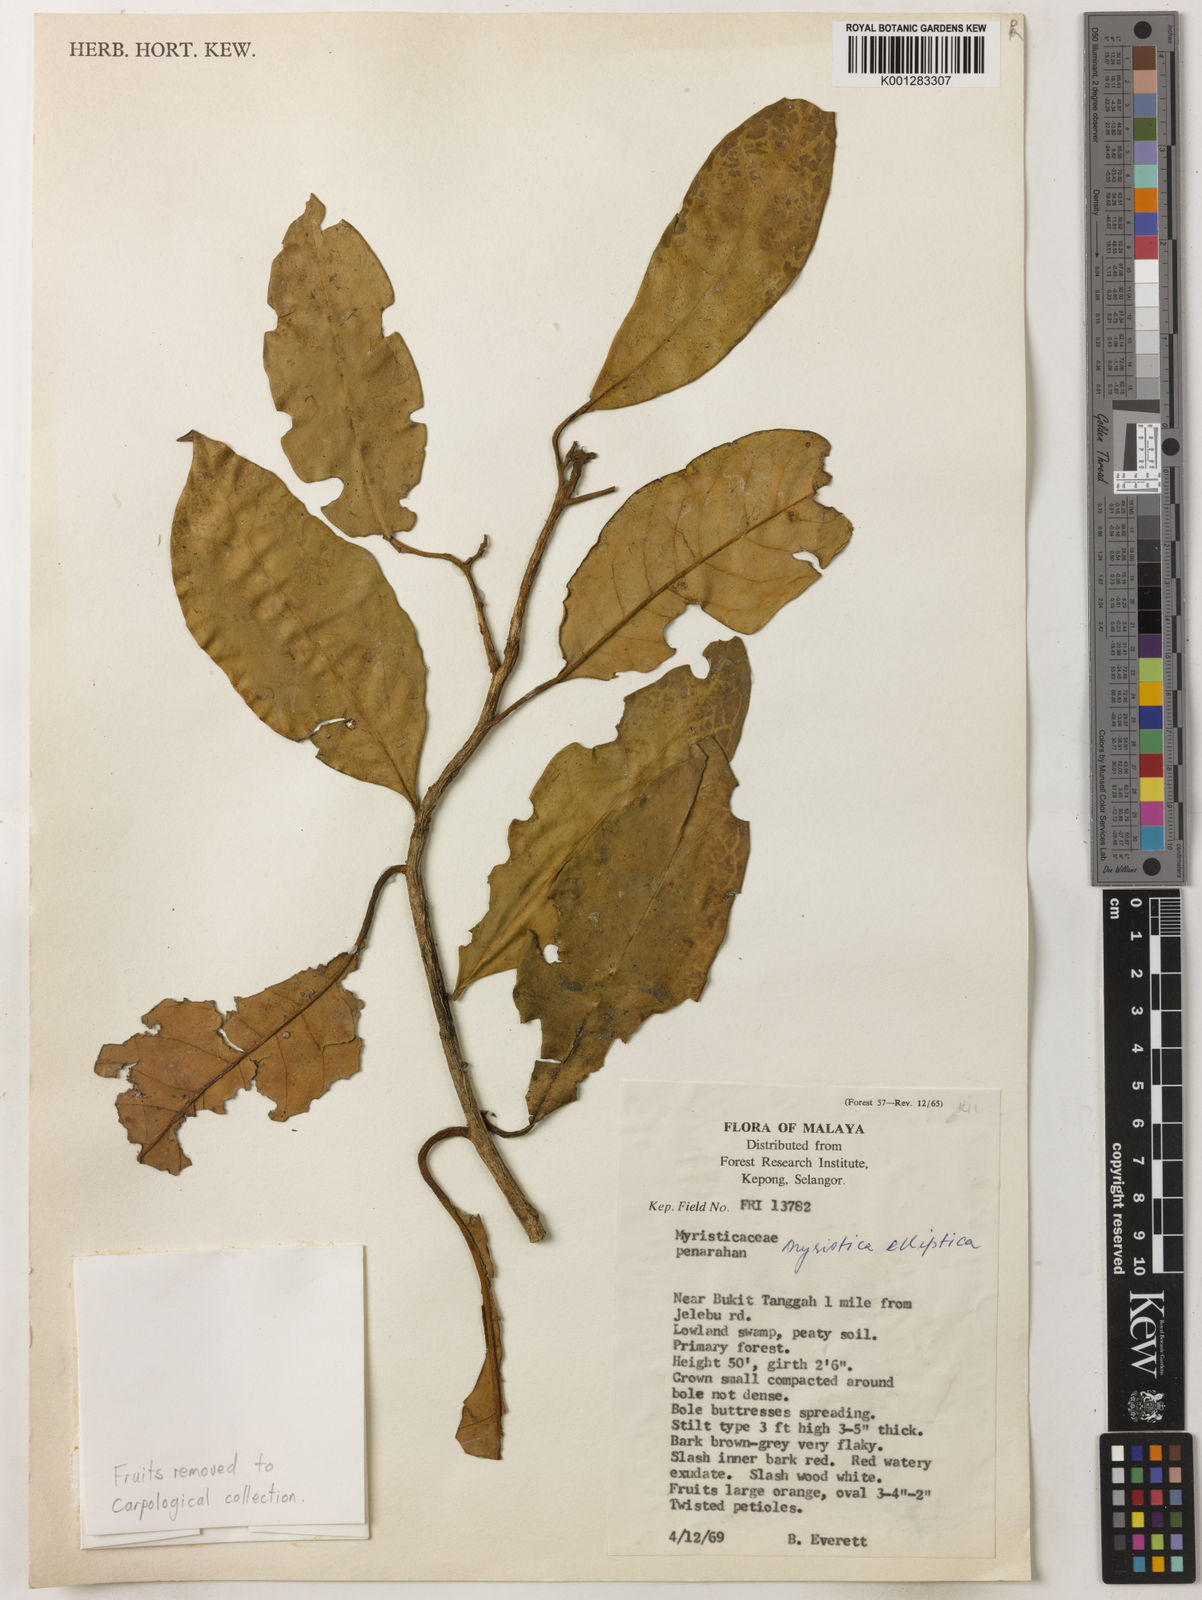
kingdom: Plantae
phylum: Tracheophyta
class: Magnoliopsida
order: Magnoliales
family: Myristicaceae
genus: Myristica
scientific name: Myristica elliptica
